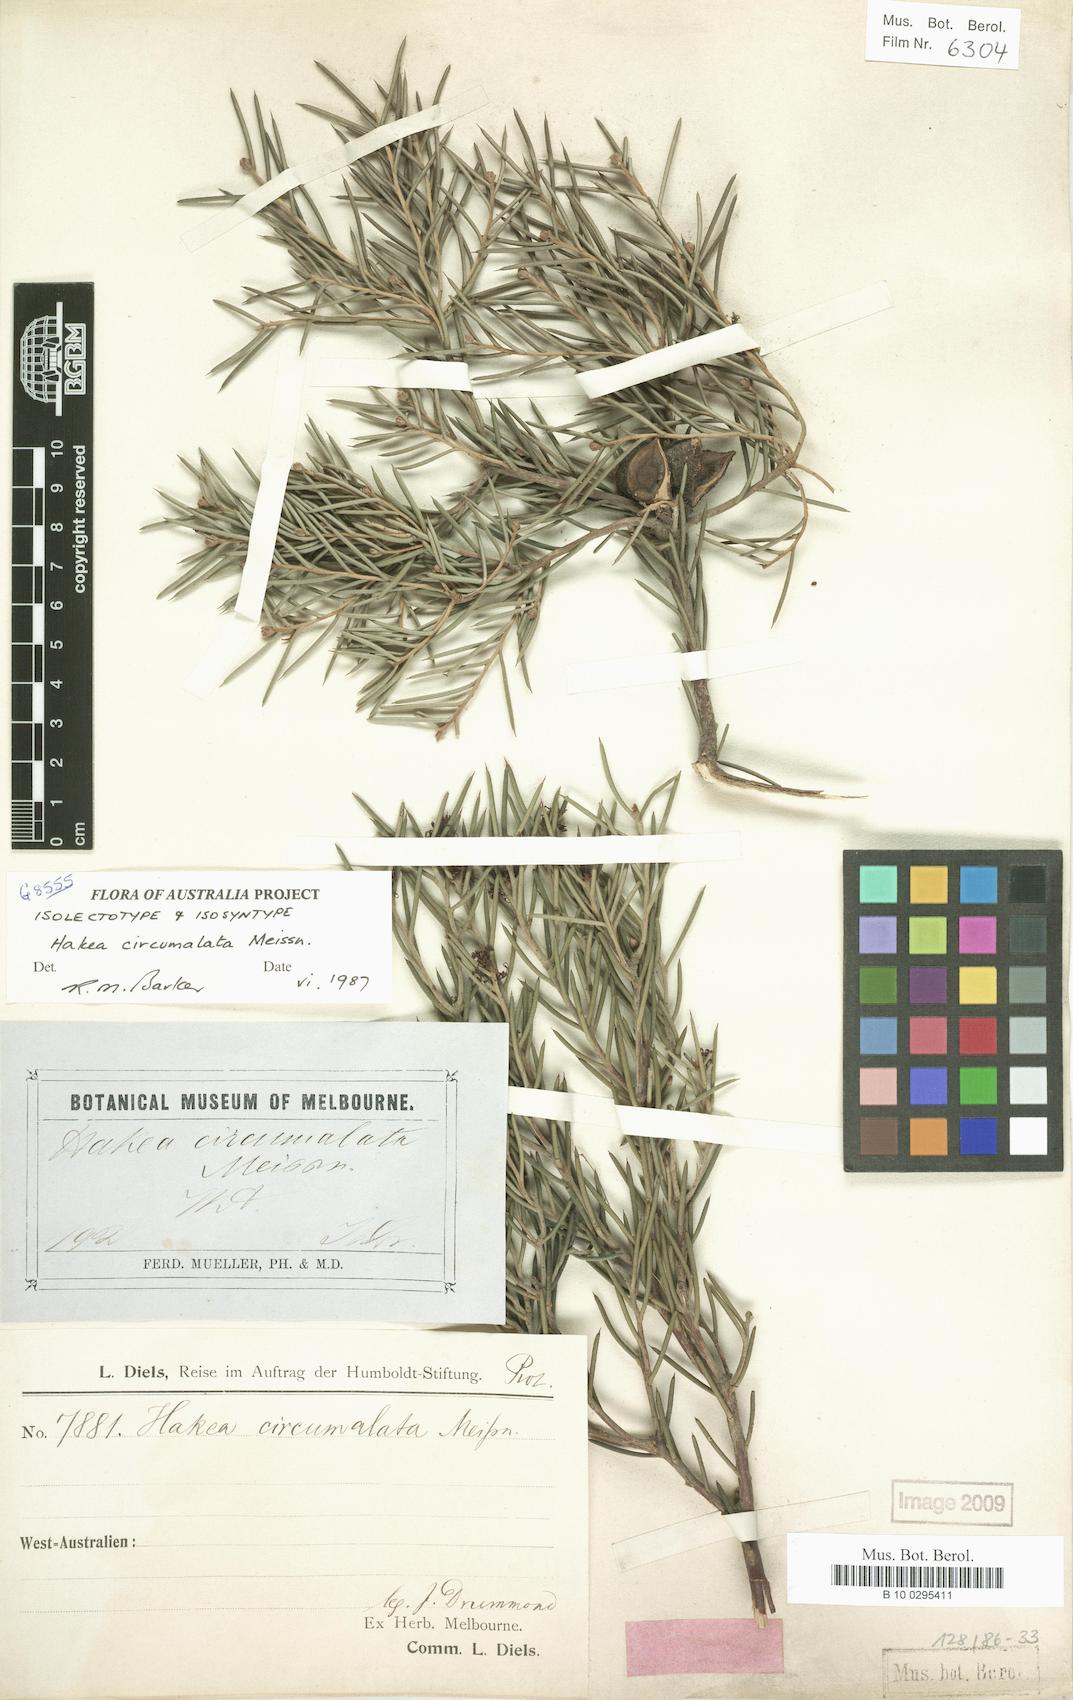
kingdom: Plantae
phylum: Tracheophyta
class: Magnoliopsida
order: Proteales
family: Proteaceae
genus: Hakea
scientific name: Hakea circumalata
